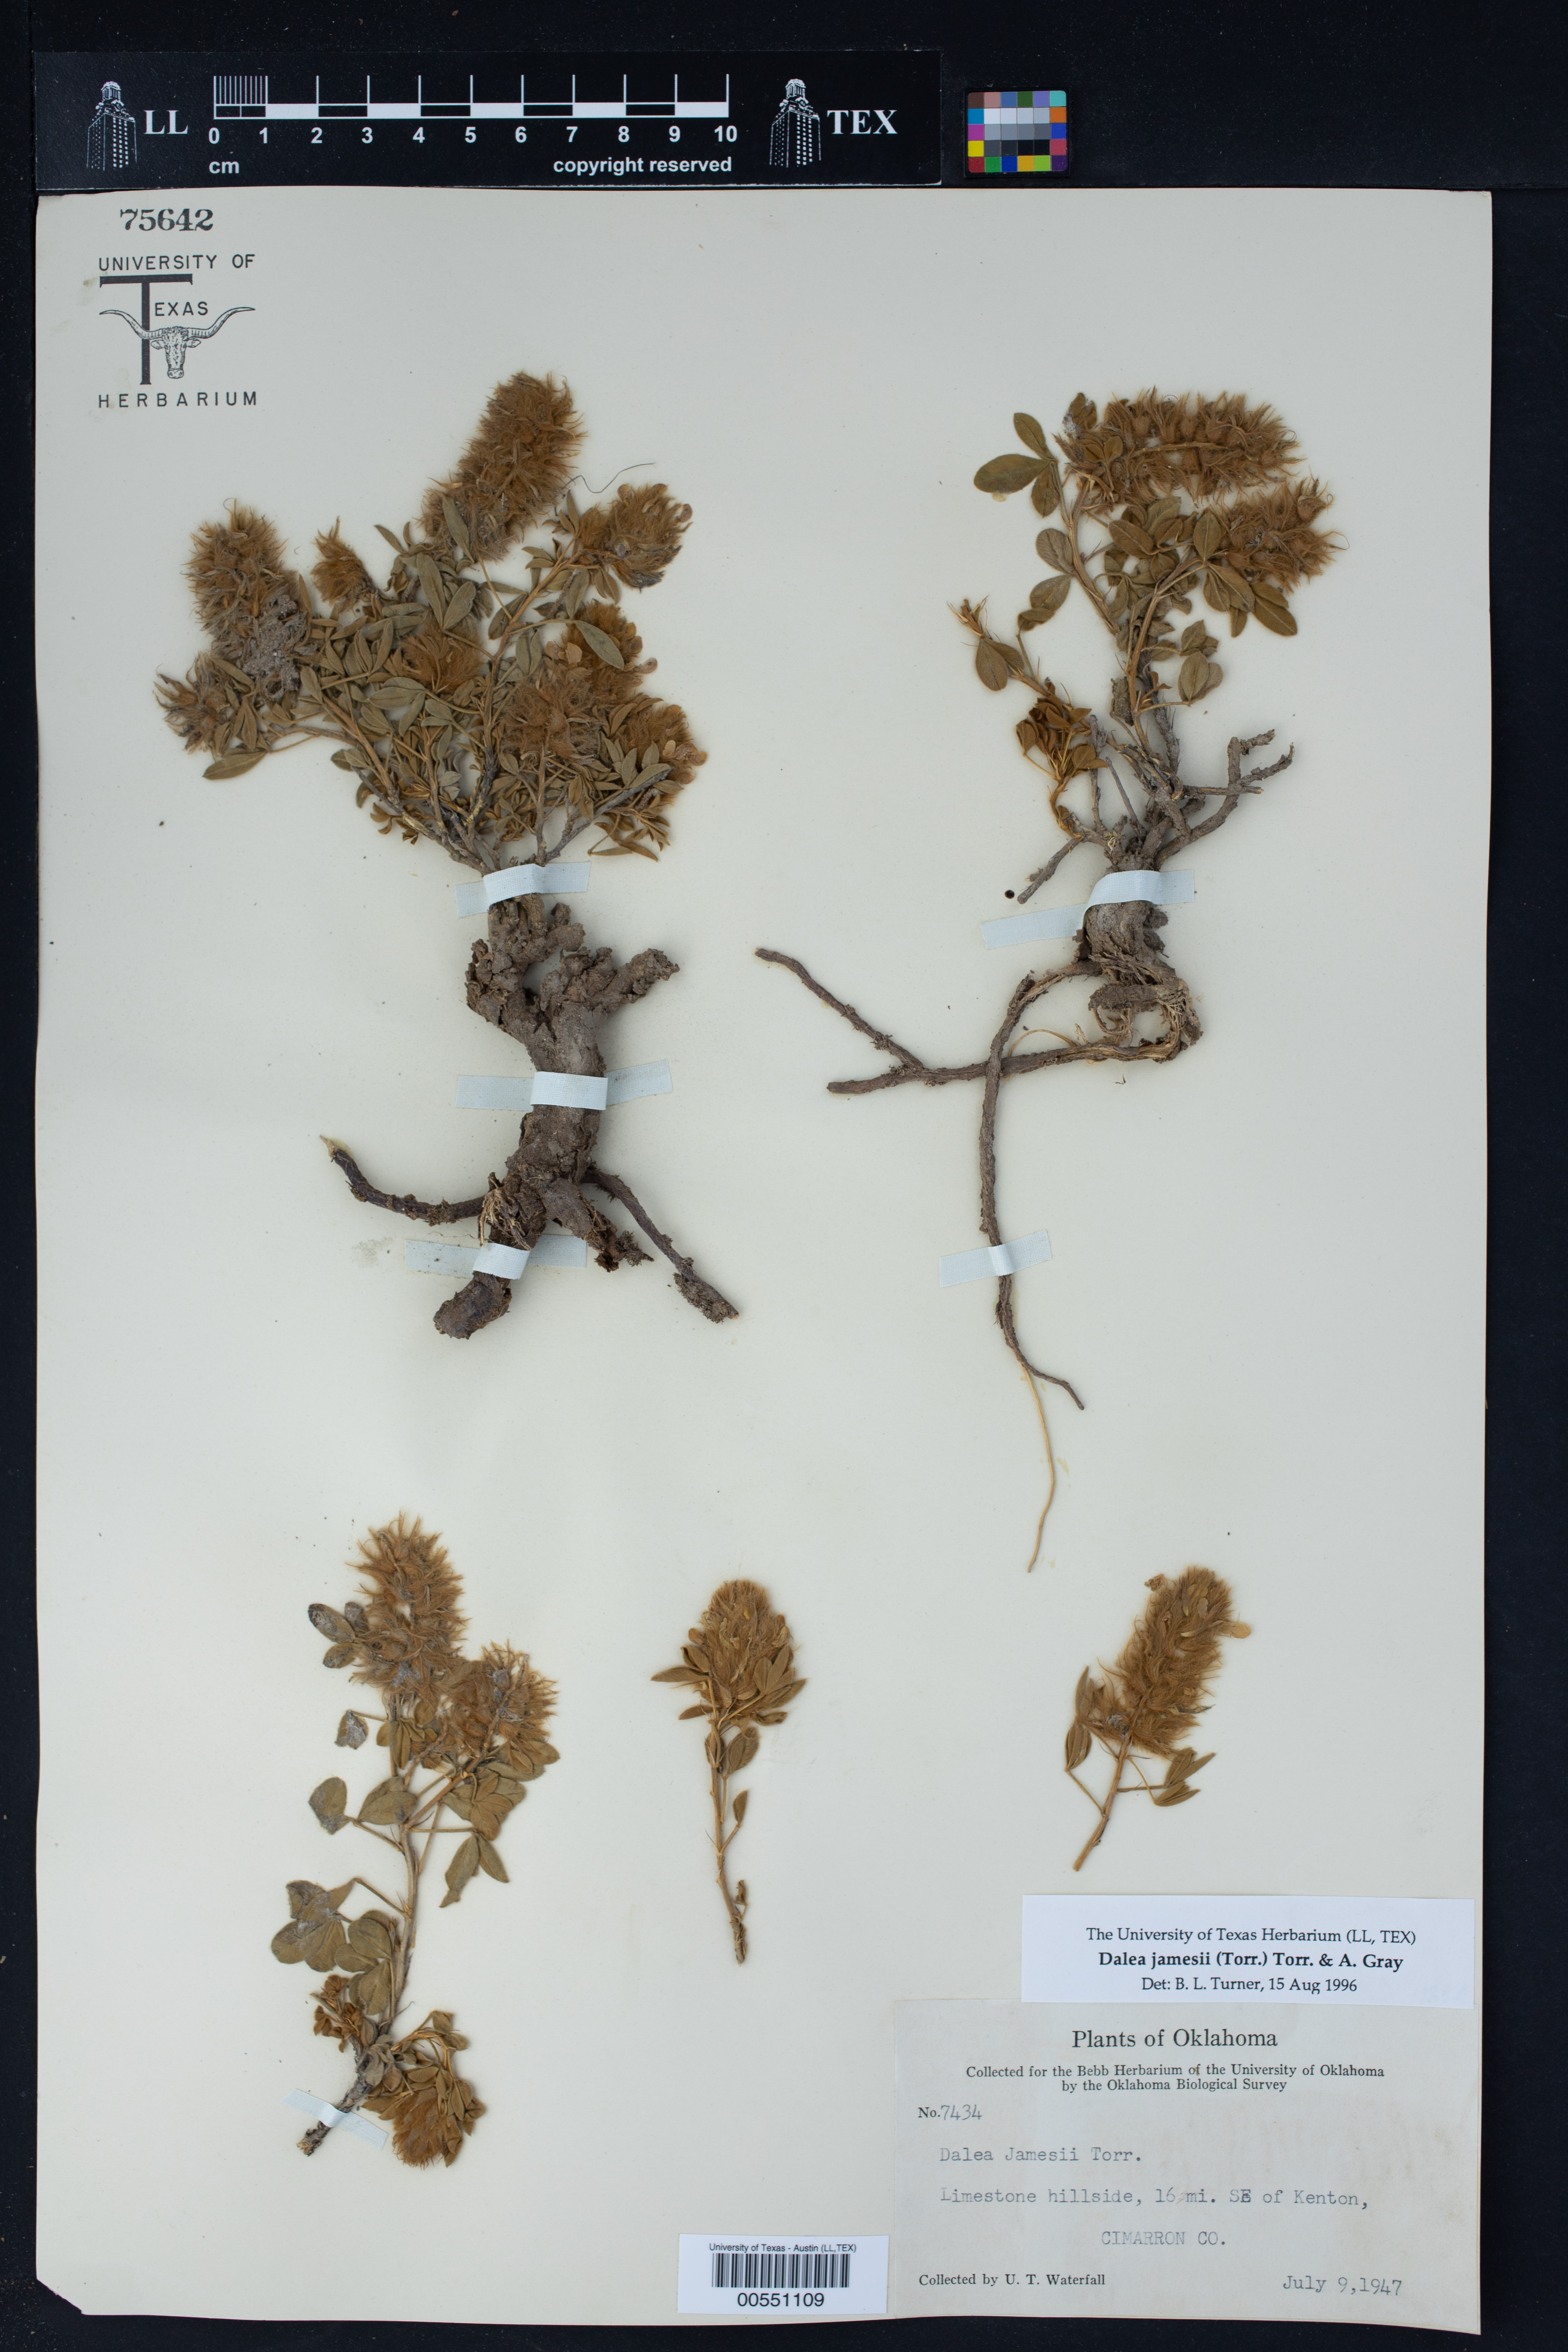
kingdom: Plantae
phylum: Tracheophyta
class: Magnoliopsida
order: Fabales
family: Fabaceae
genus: Dalea
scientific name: Dalea jamesii
